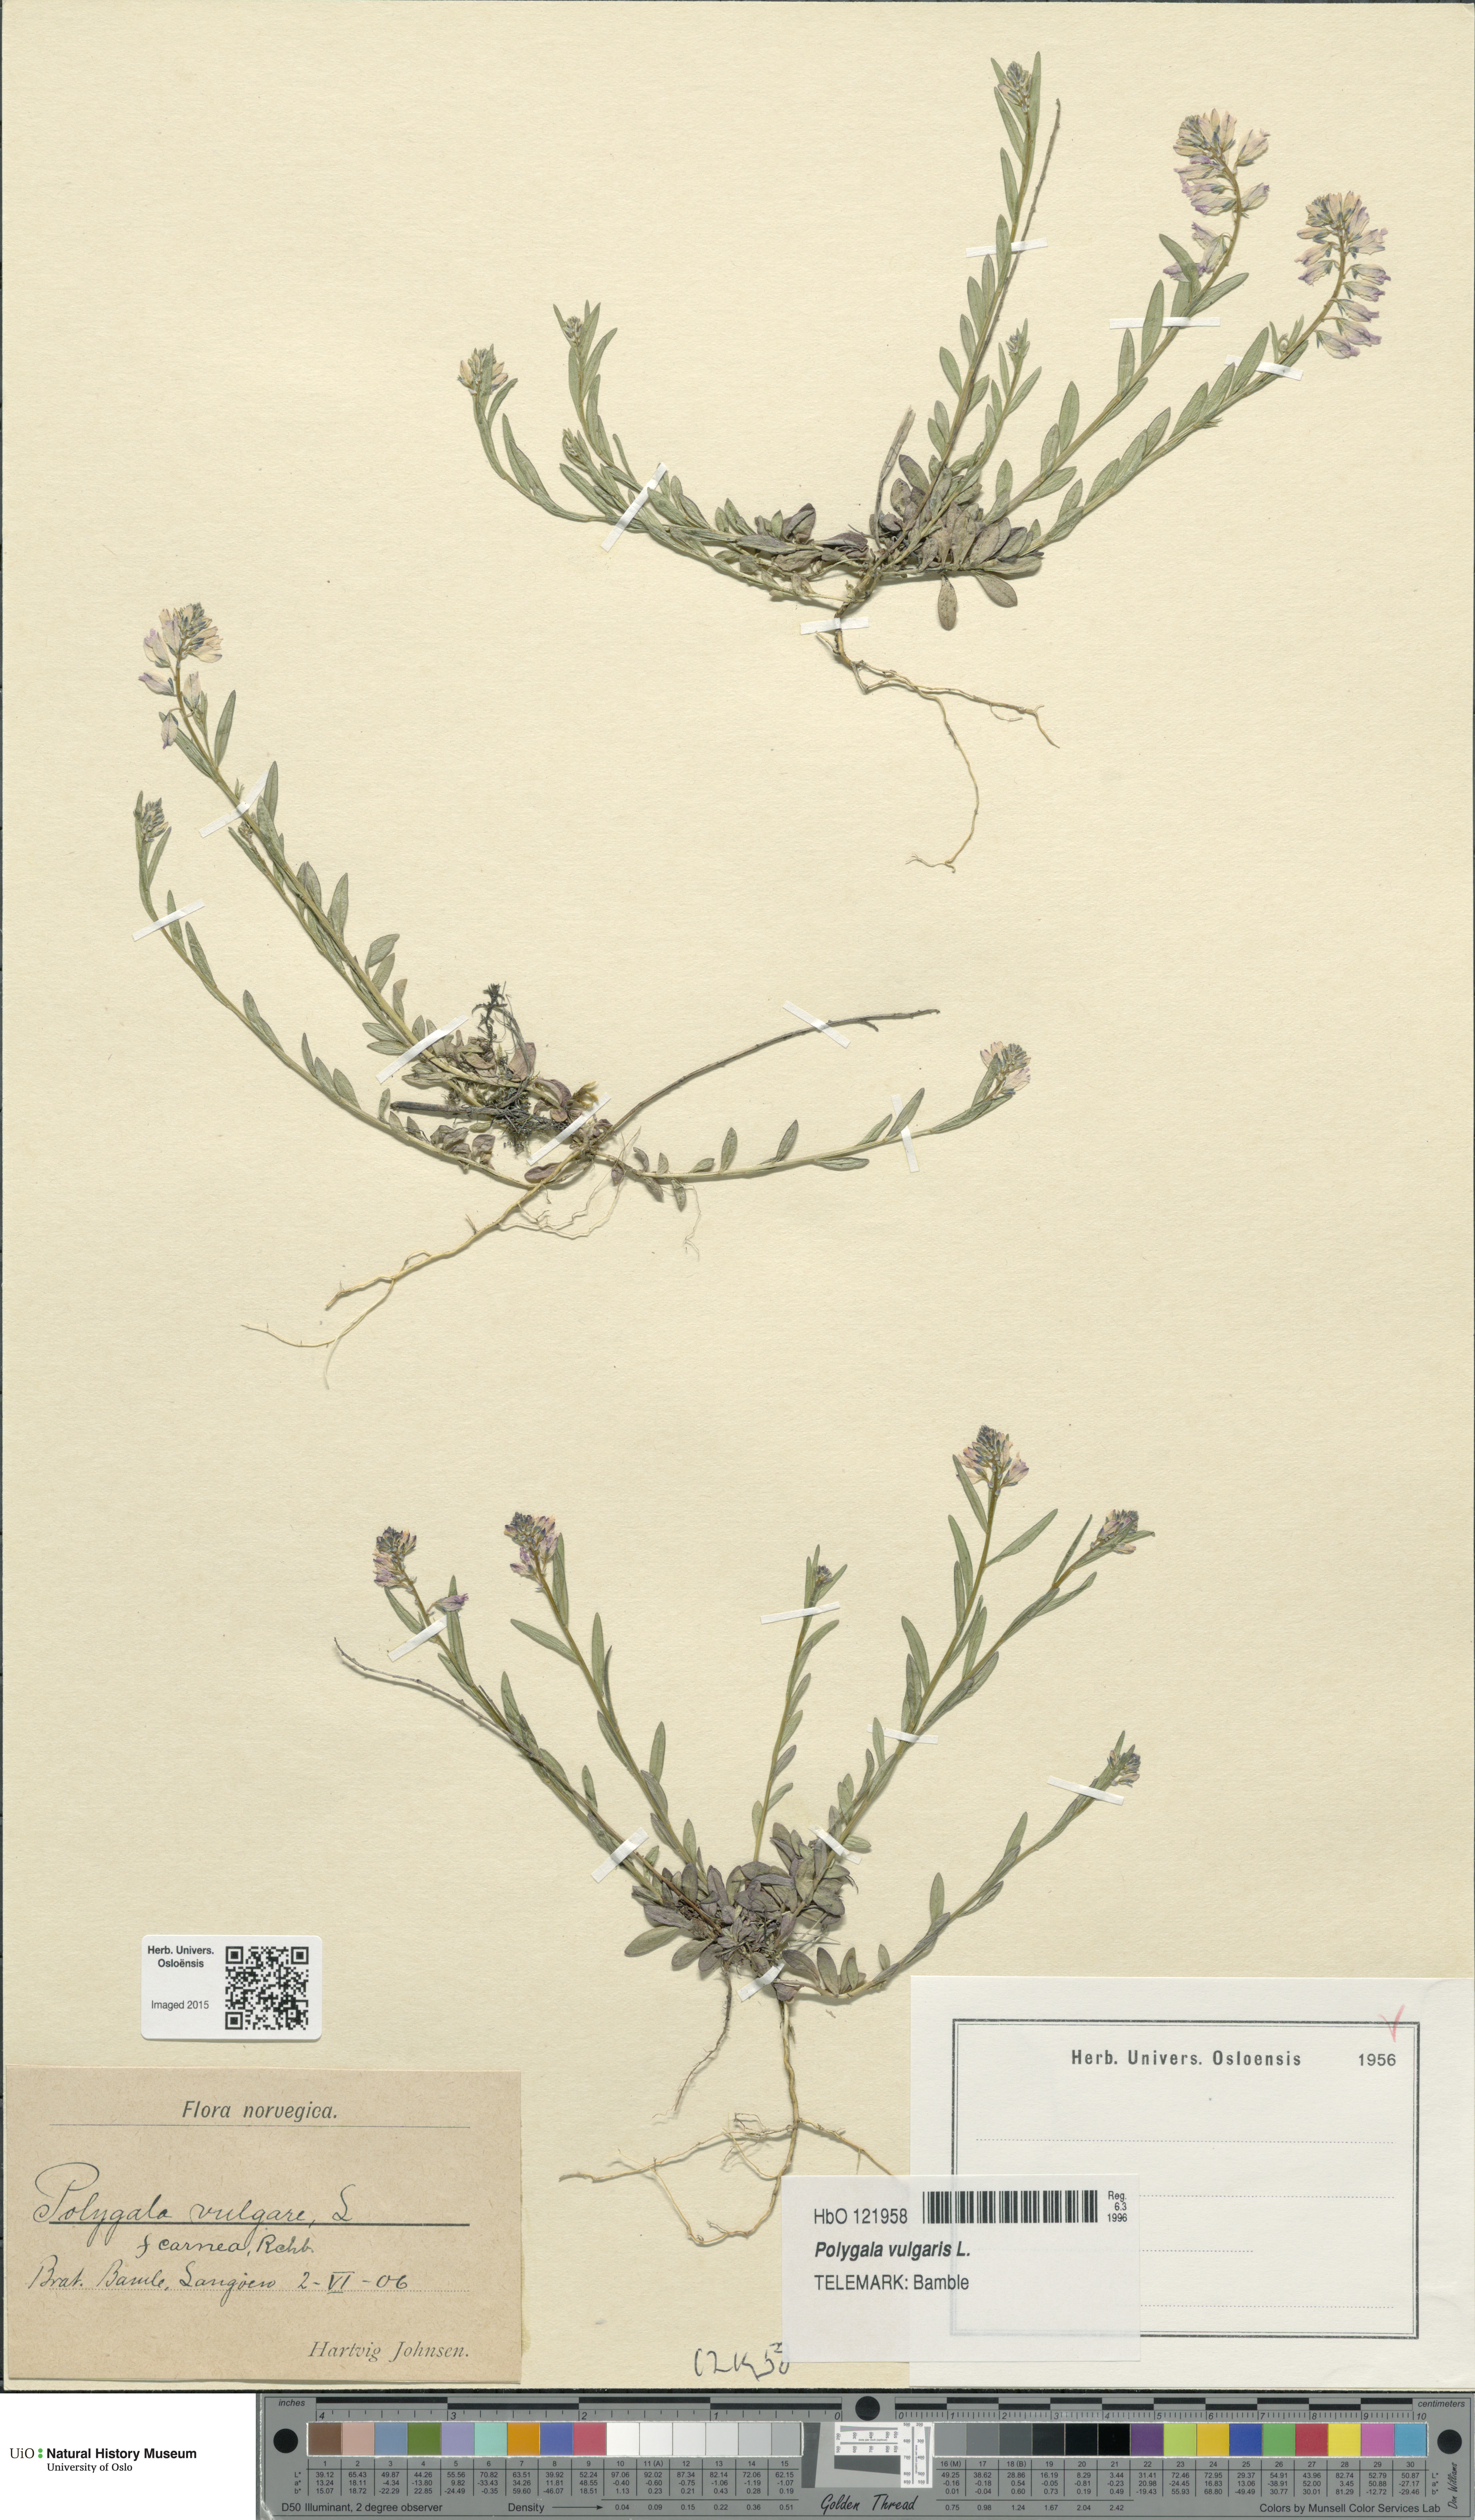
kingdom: Plantae
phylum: Tracheophyta
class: Magnoliopsida
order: Fabales
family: Polygalaceae
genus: Polygala
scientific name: Polygala vulgaris
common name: Common milkwort
